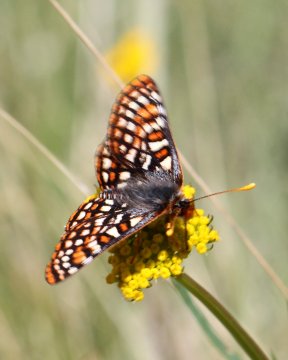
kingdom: Animalia
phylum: Arthropoda
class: Insecta
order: Lepidoptera
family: Nymphalidae
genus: Occidryas
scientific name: Occidryas anicia
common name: Anicia Checkerspot
